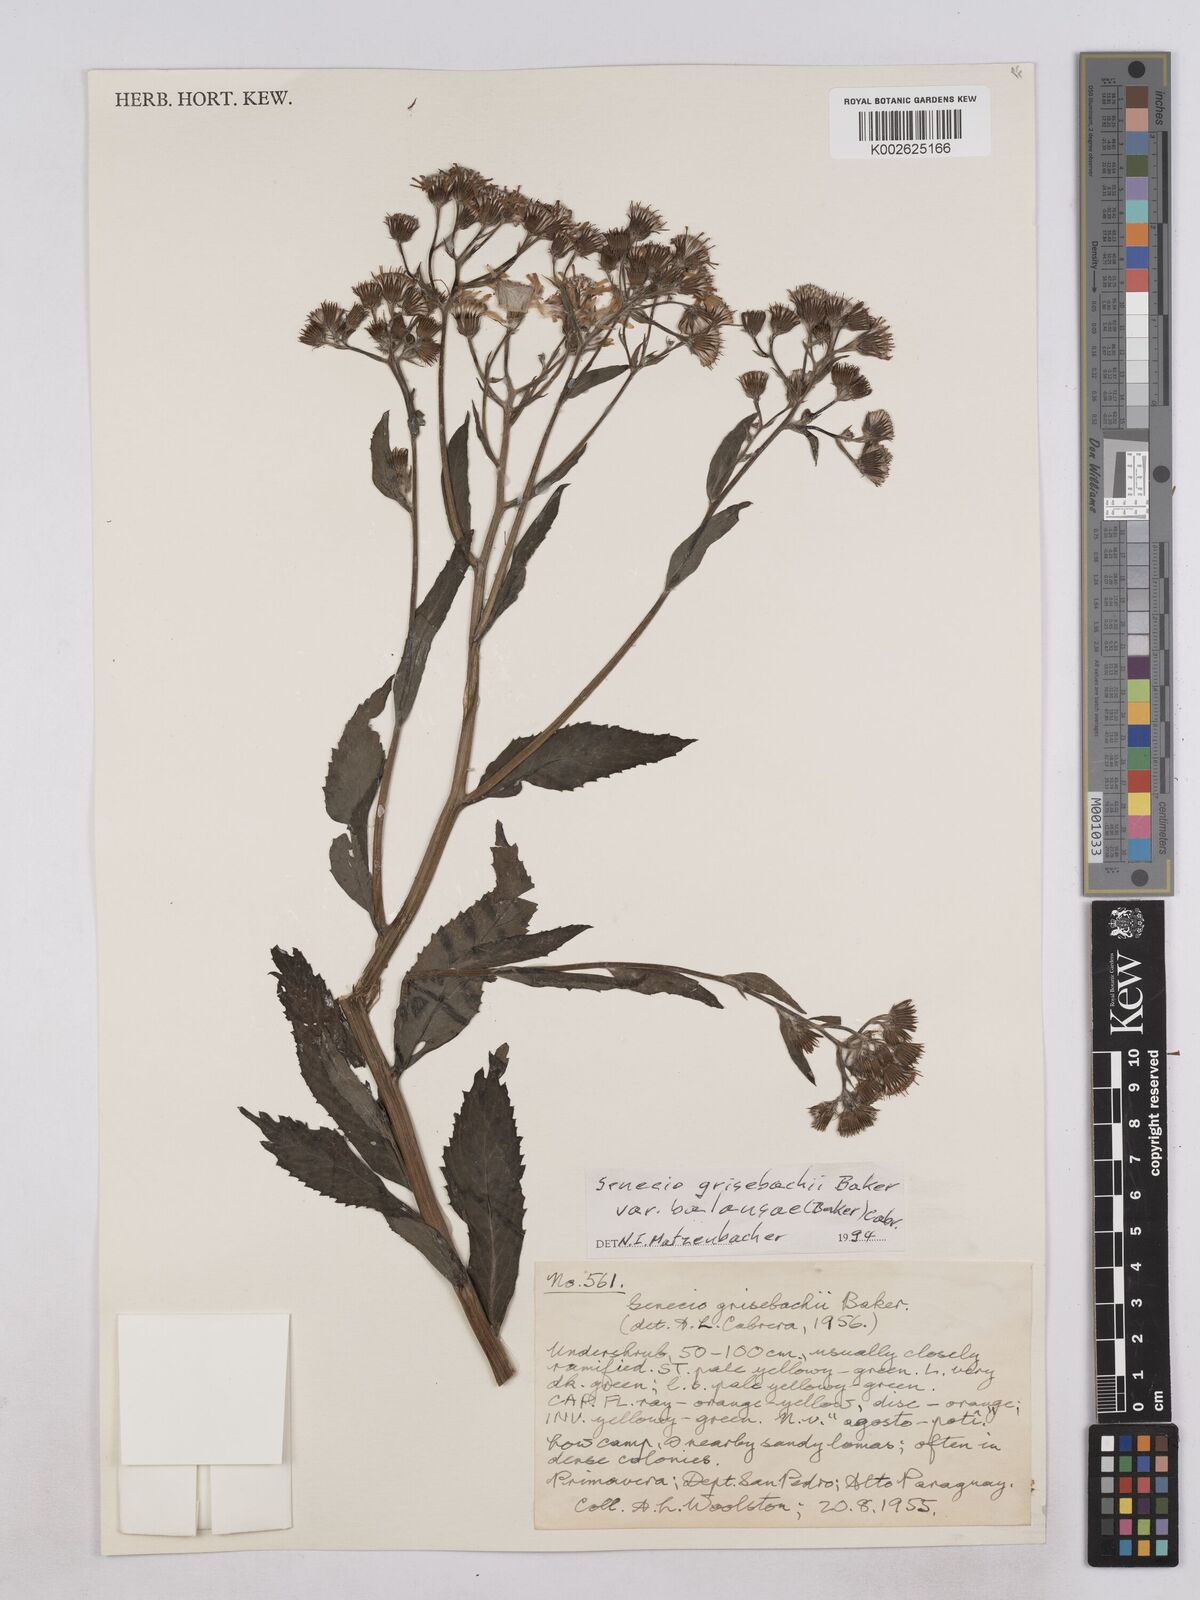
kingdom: Plantae
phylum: Tracheophyta
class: Magnoliopsida
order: Asterales
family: Asteraceae
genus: Senecio
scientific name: Senecio grisebachii
